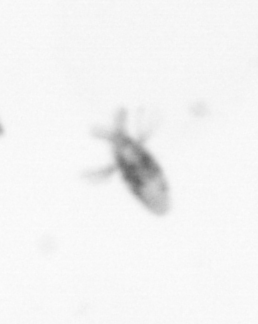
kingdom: Animalia
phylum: Arthropoda
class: Copepoda
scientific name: Copepoda
